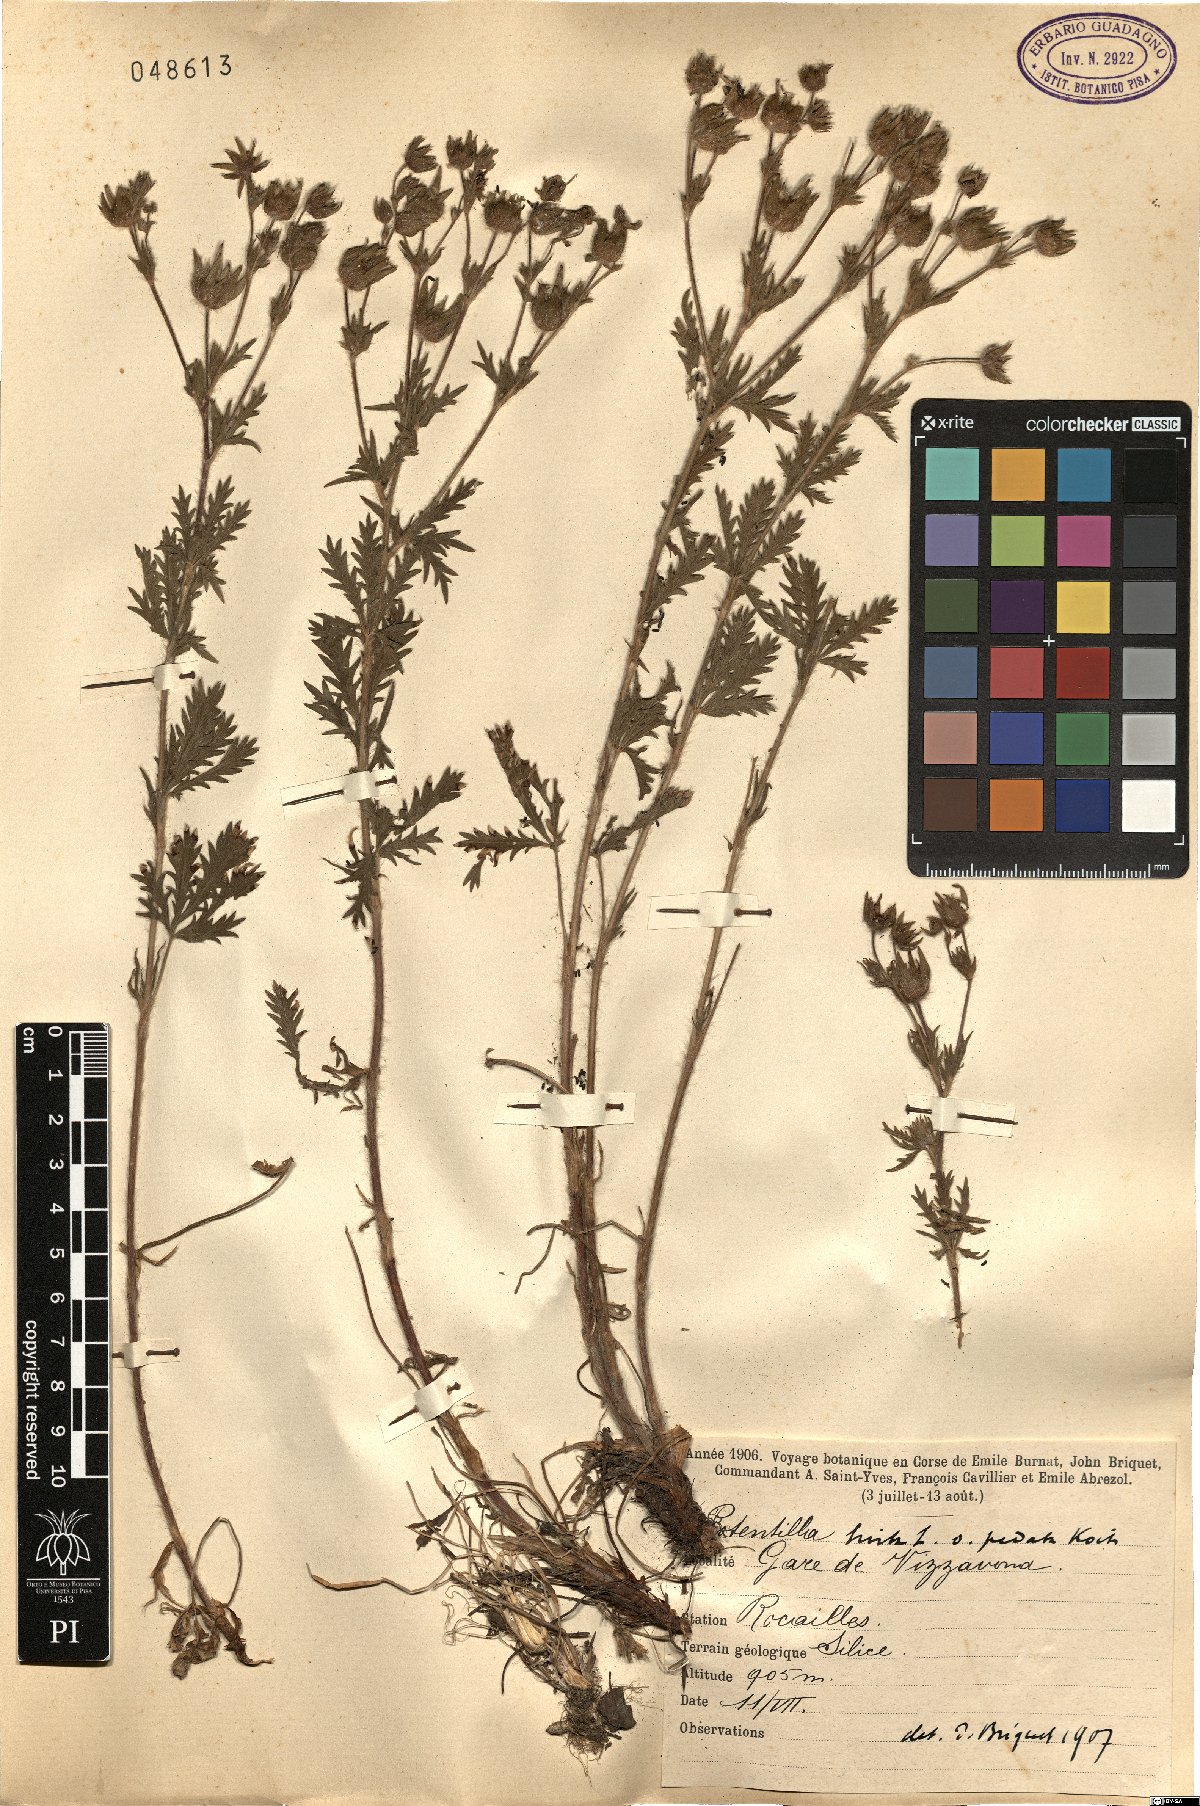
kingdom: Plantae
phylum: Tracheophyta
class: Magnoliopsida
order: Rosales
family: Rosaceae
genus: Potentilla
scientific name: Potentilla pedata
